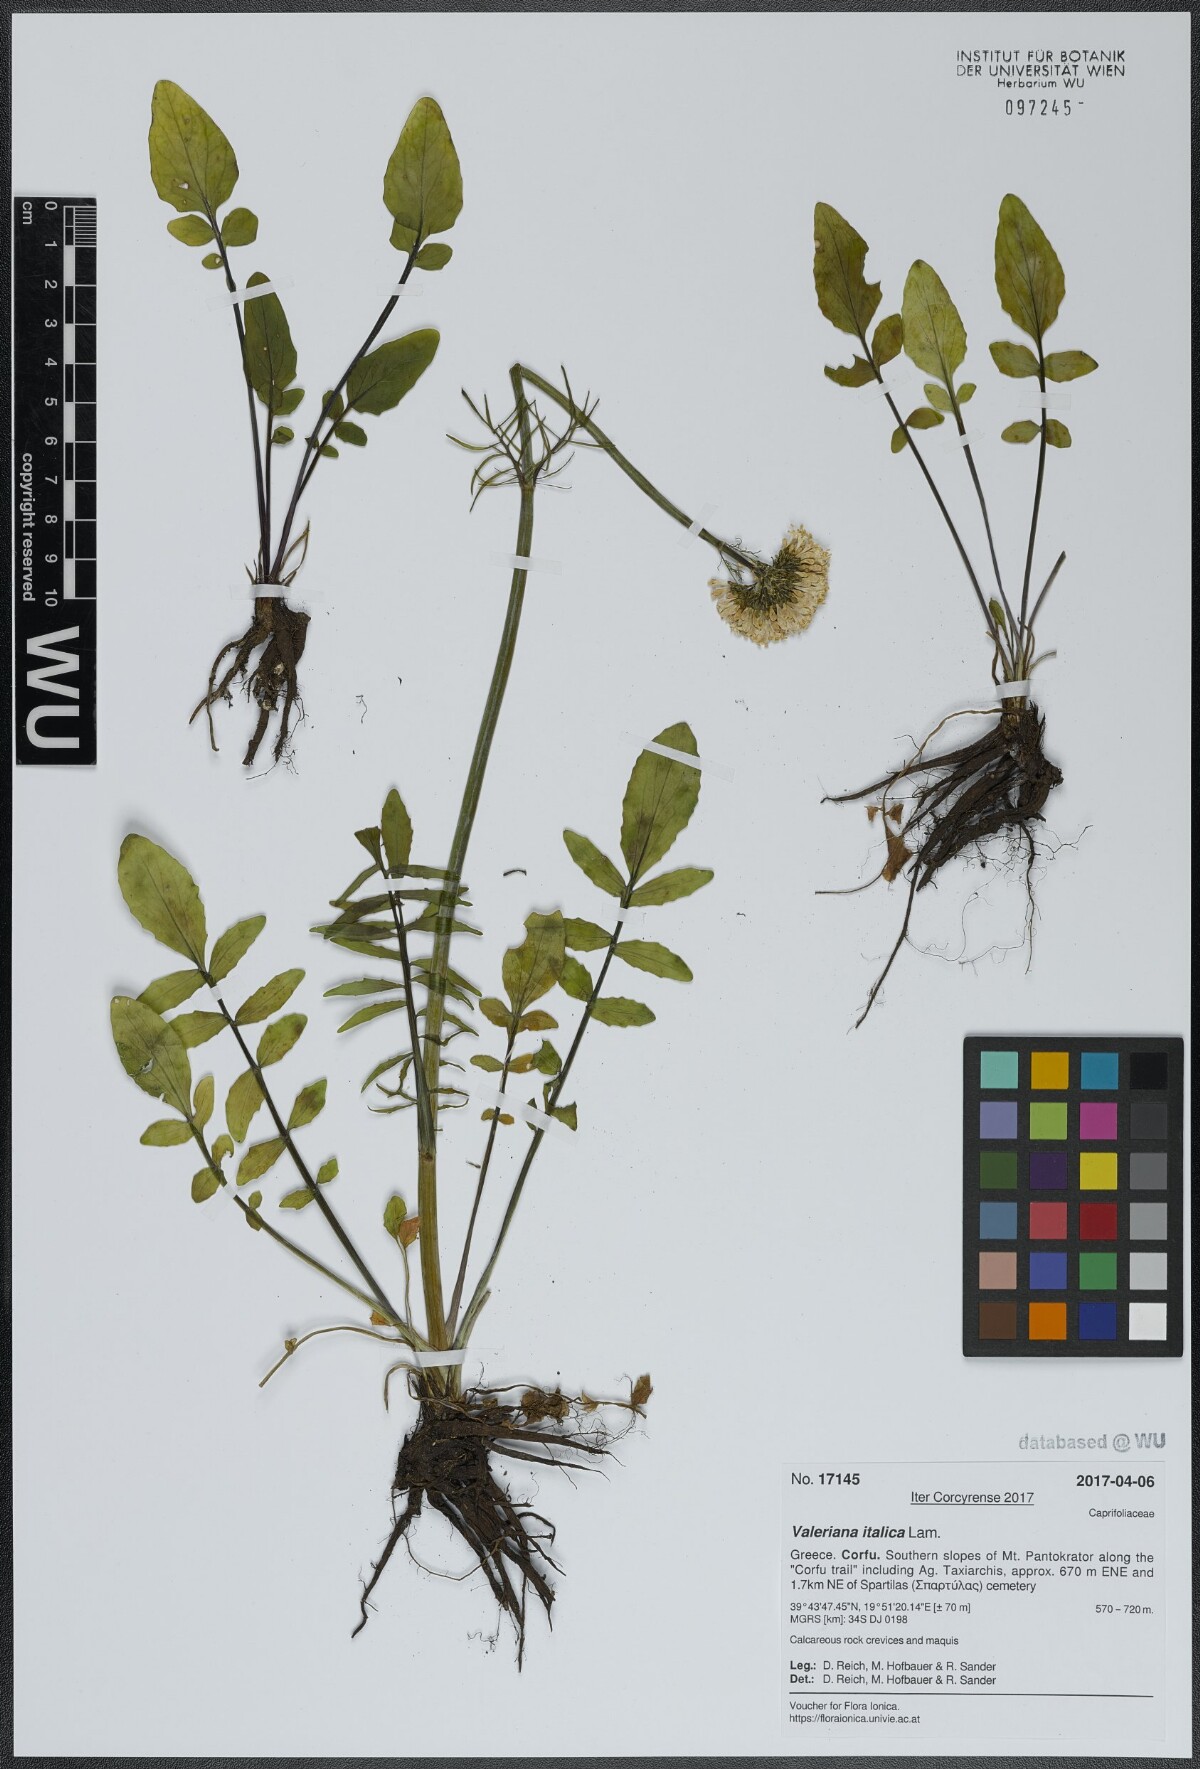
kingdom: Plantae
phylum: Tracheophyta
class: Magnoliopsida
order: Dipsacales
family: Caprifoliaceae
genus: Valeriana
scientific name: Valeriana dioscoridis
